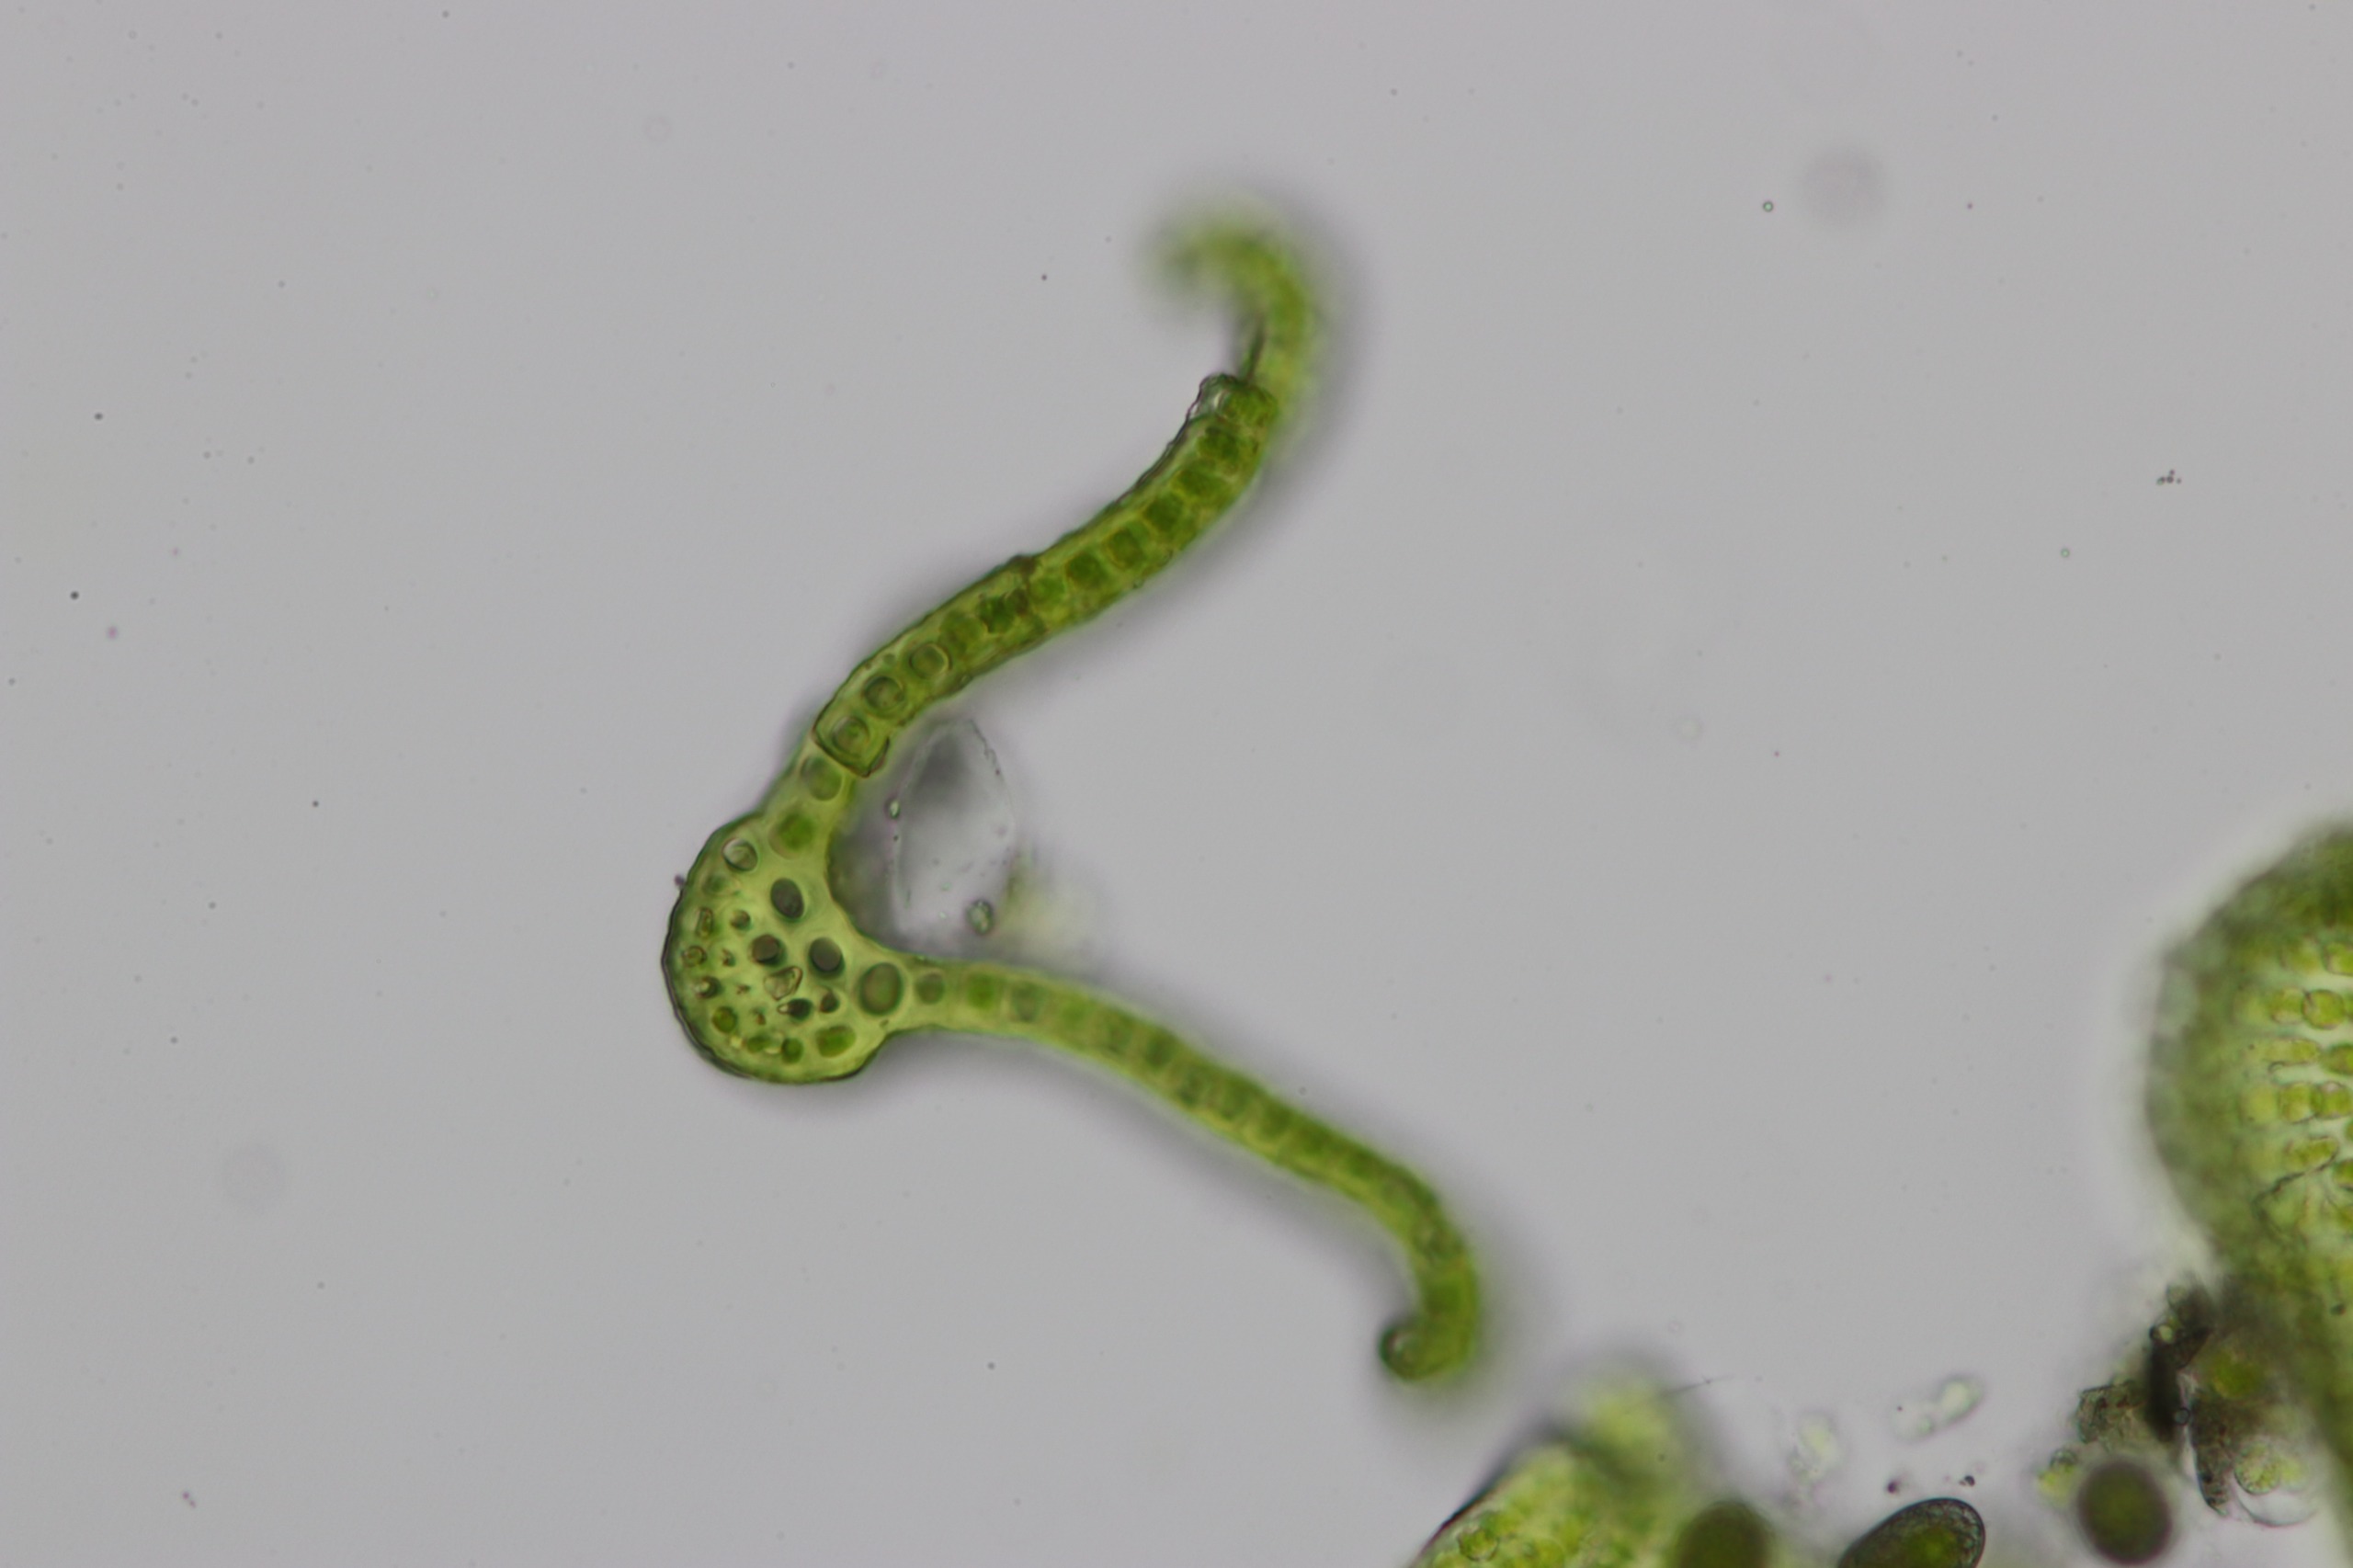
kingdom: Plantae
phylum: Bryophyta
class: Bryopsida
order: Grimmiales
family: Grimmiaceae
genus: Grimmia
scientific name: Grimmia trichophylla
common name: Glathåret gråmos
